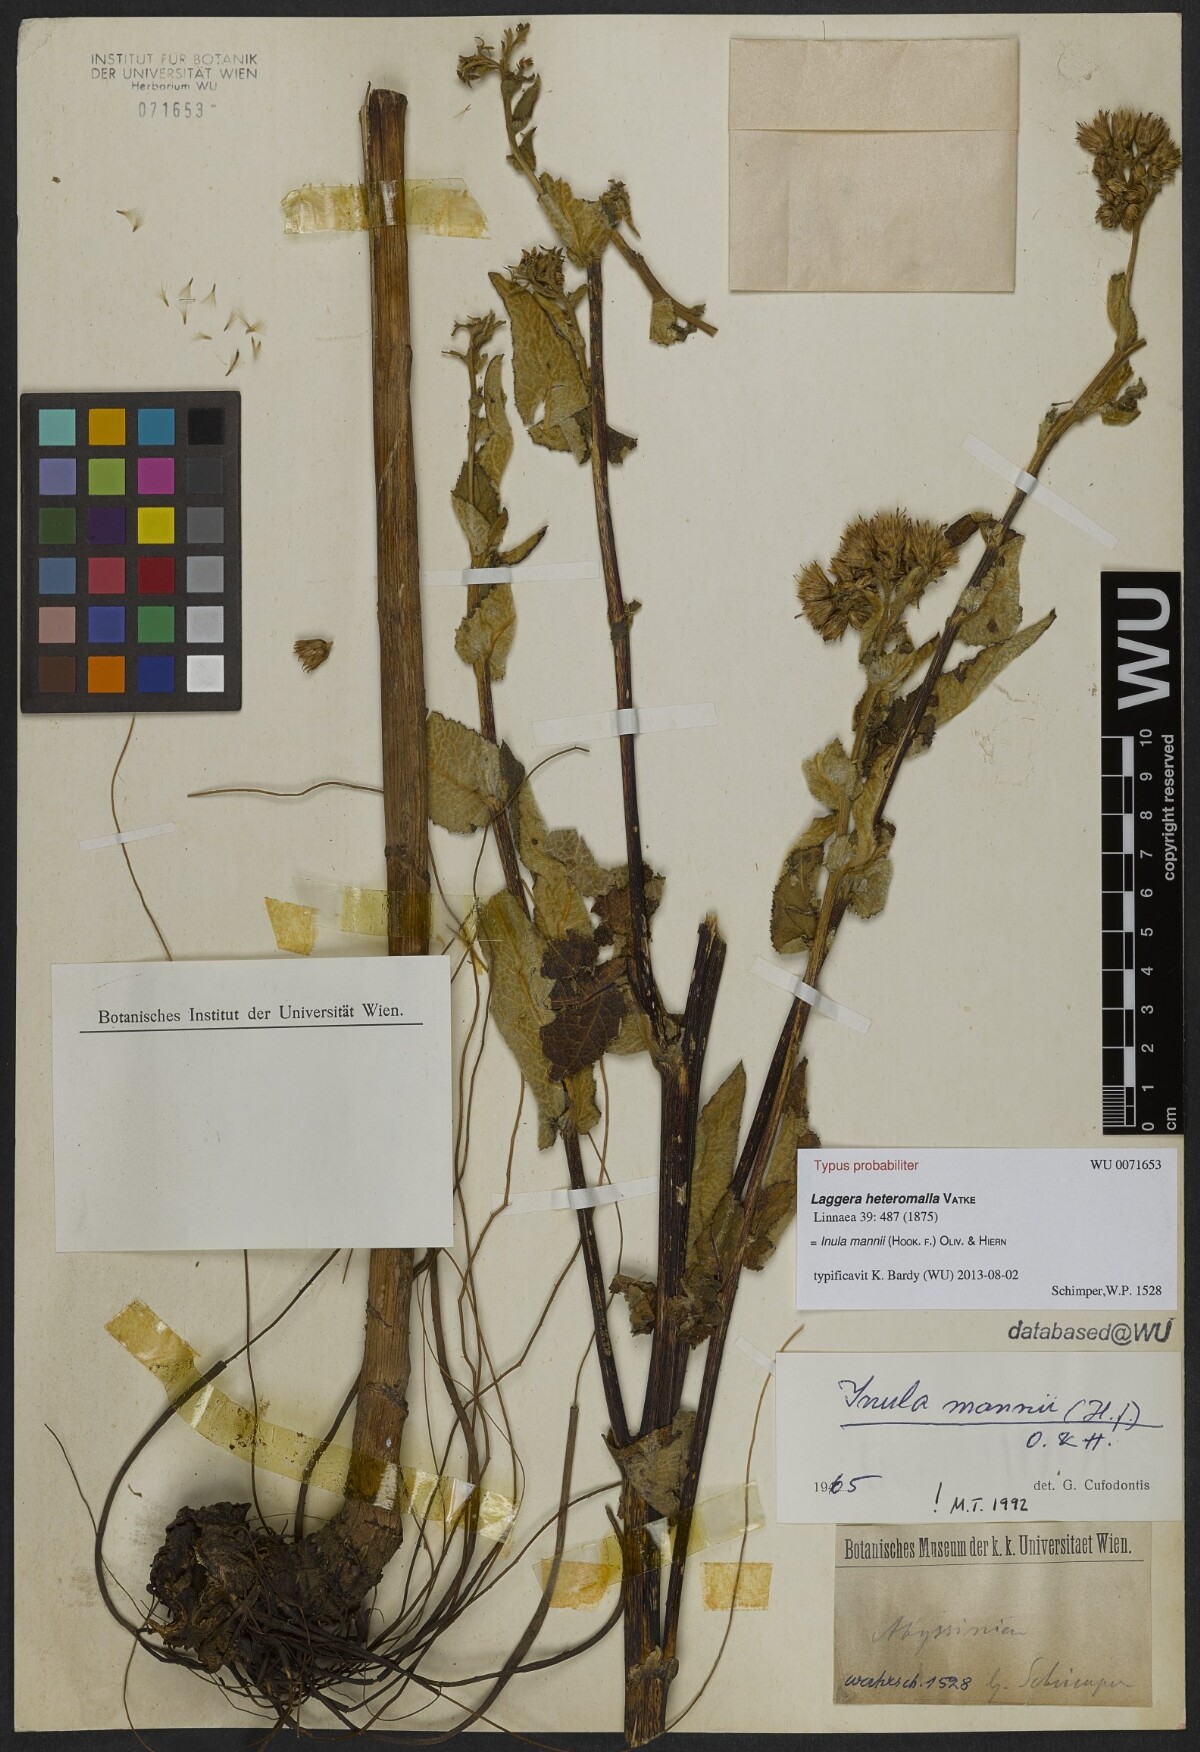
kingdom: Plantae
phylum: Tracheophyta
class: Magnoliopsida
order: Asterales
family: Asteraceae
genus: Inula
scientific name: Inula mannii
